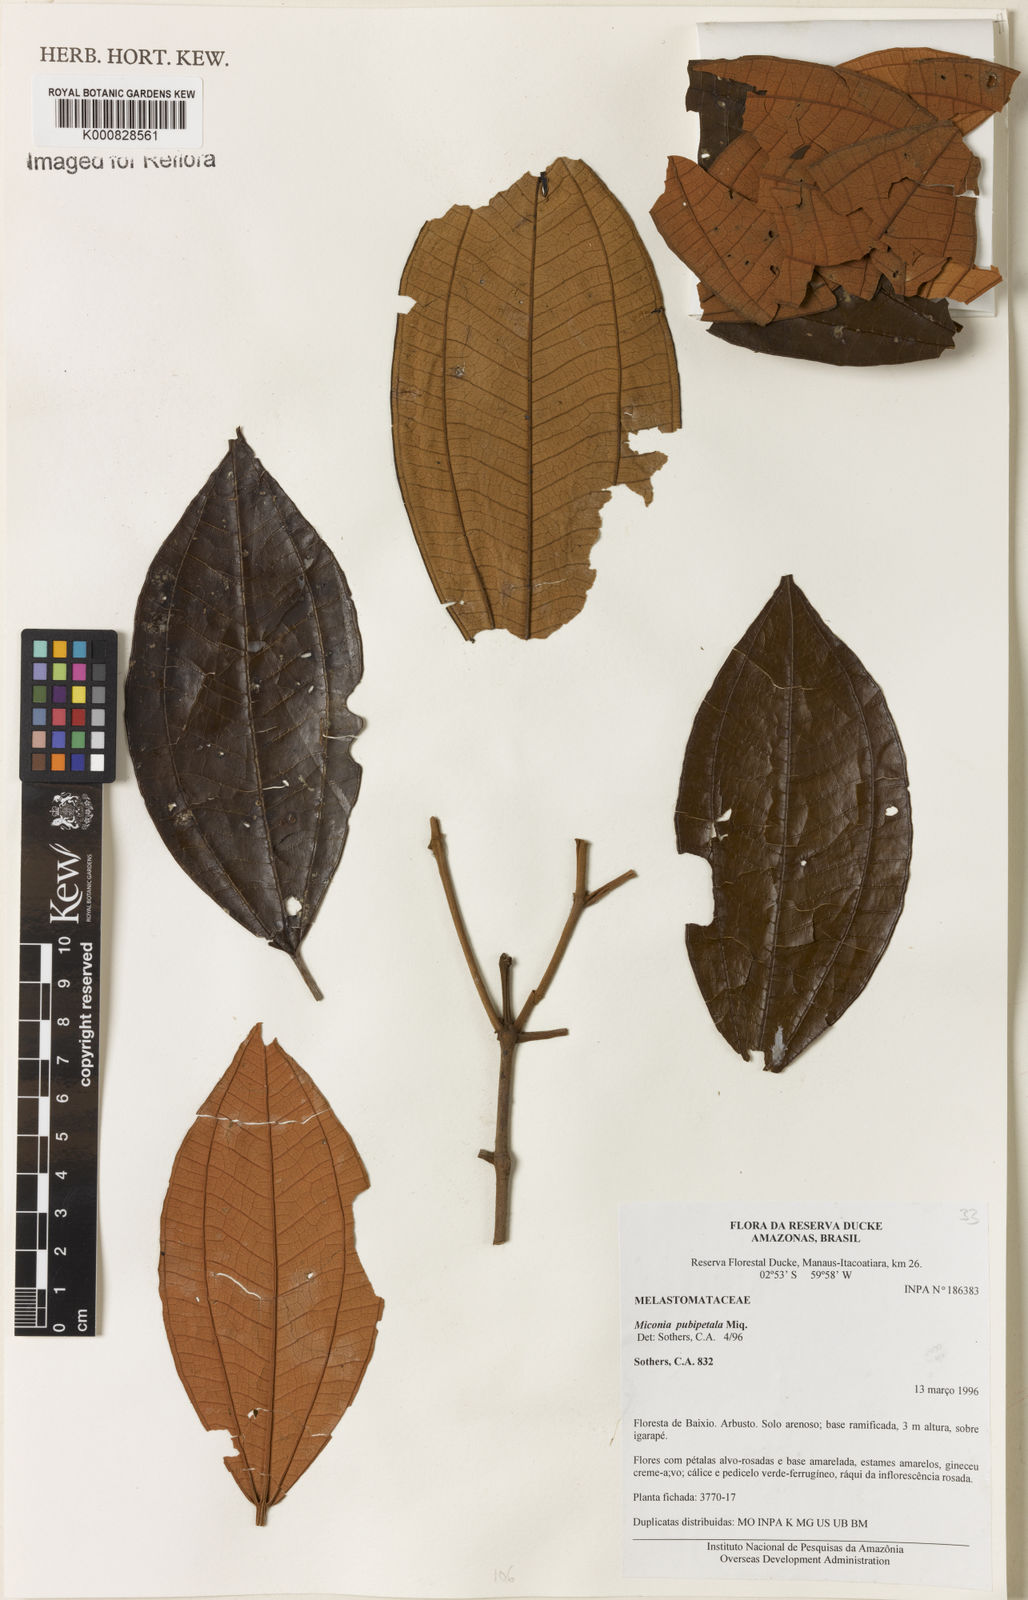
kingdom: Plantae
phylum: Tracheophyta
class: Magnoliopsida
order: Myrtales
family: Melastomataceae
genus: Miconia
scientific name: Miconia pubipetala
